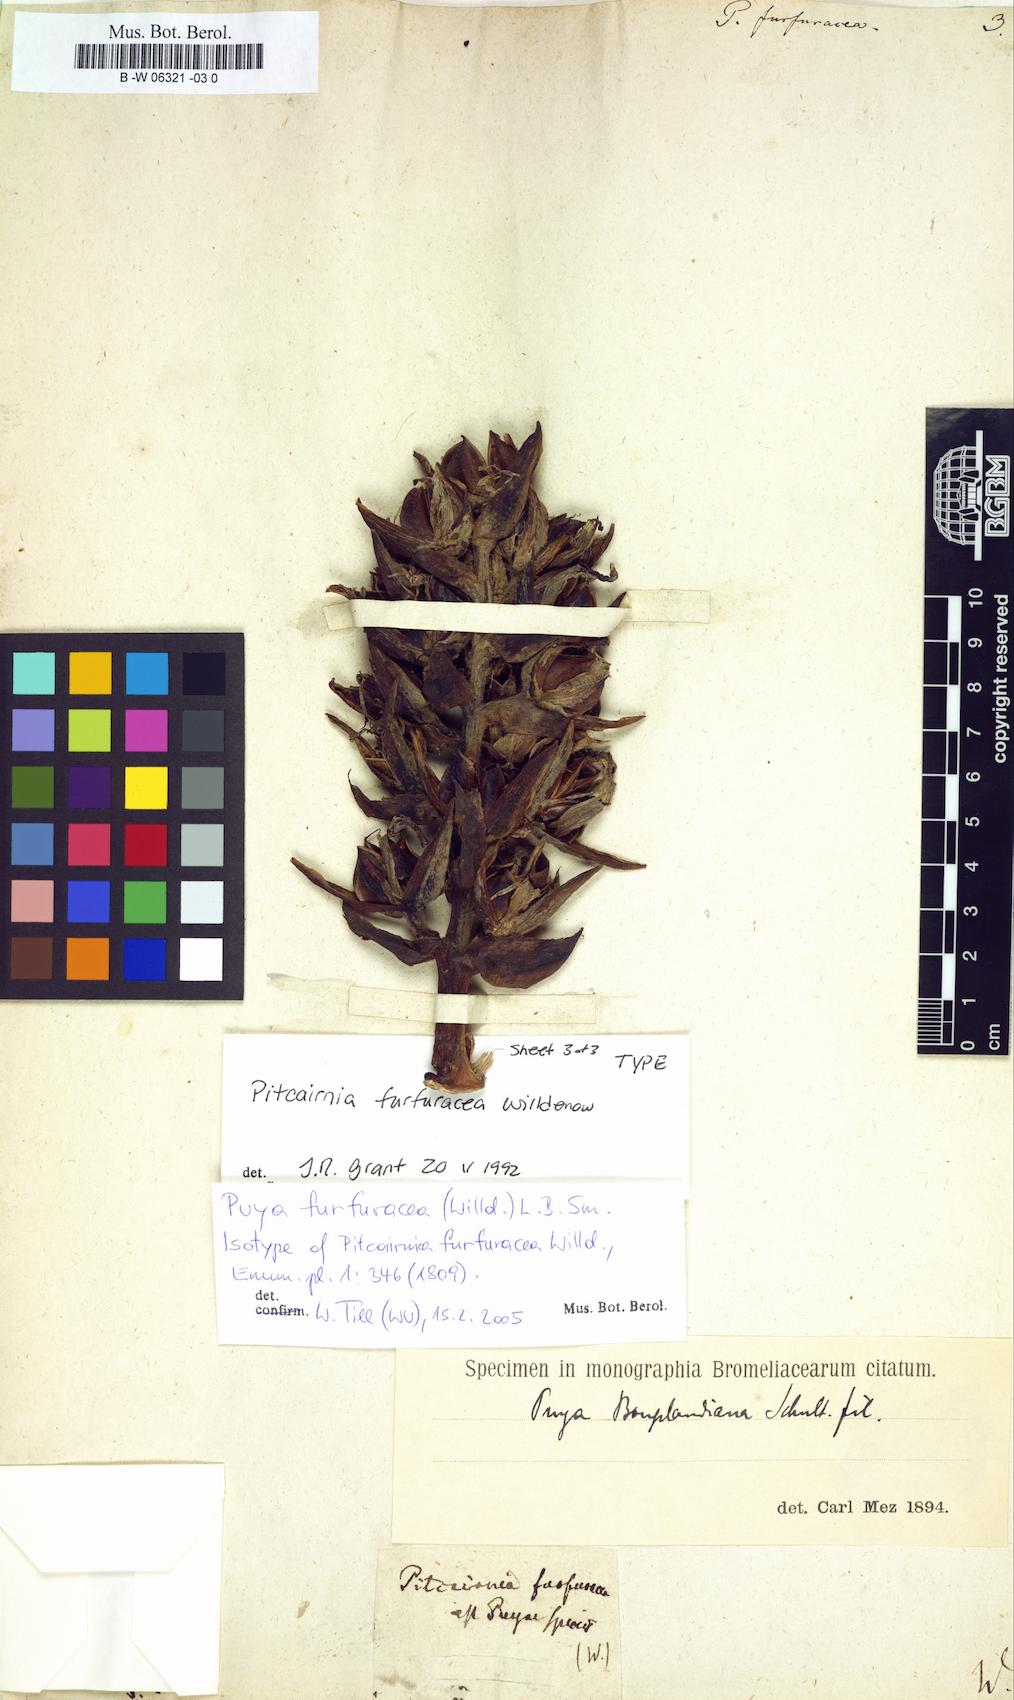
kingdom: Plantae
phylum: Tracheophyta
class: Liliopsida
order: Poales
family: Bromeliaceae
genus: Puya
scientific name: Puya furfuracea
